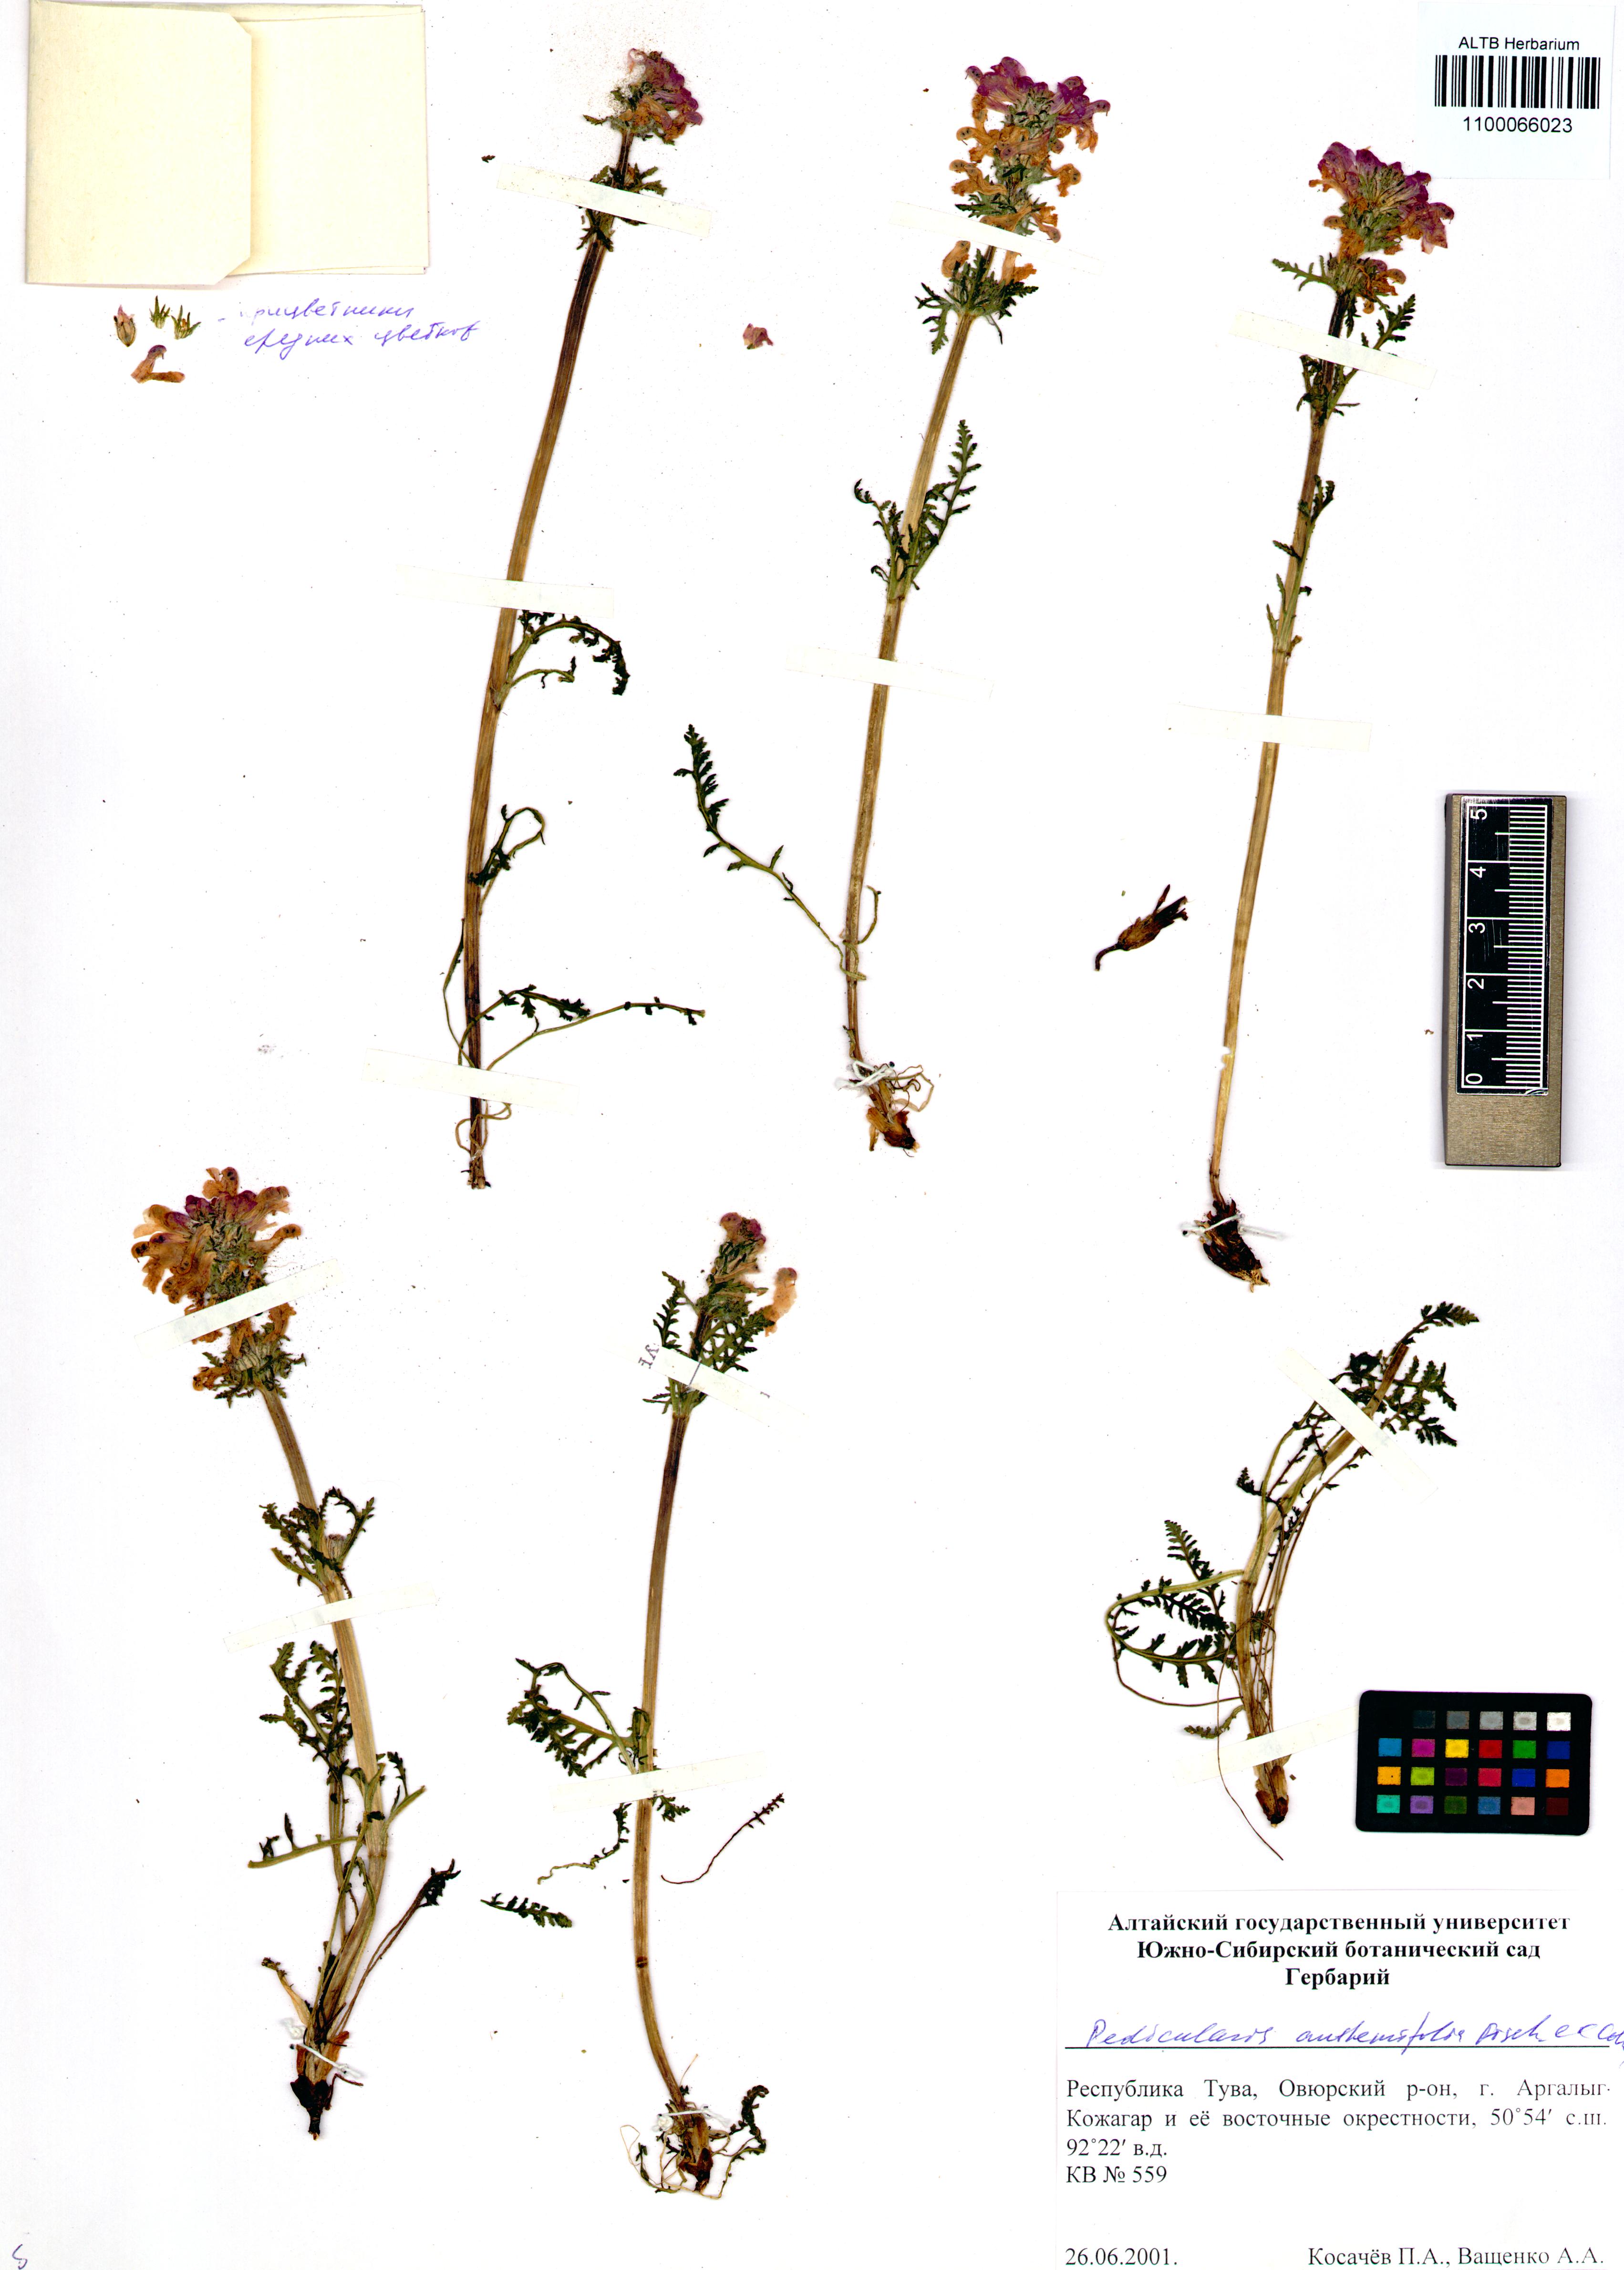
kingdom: Plantae
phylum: Tracheophyta
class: Magnoliopsida
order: Lamiales
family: Orobanchaceae
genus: Pedicularis
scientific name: Pedicularis anthemifolia
